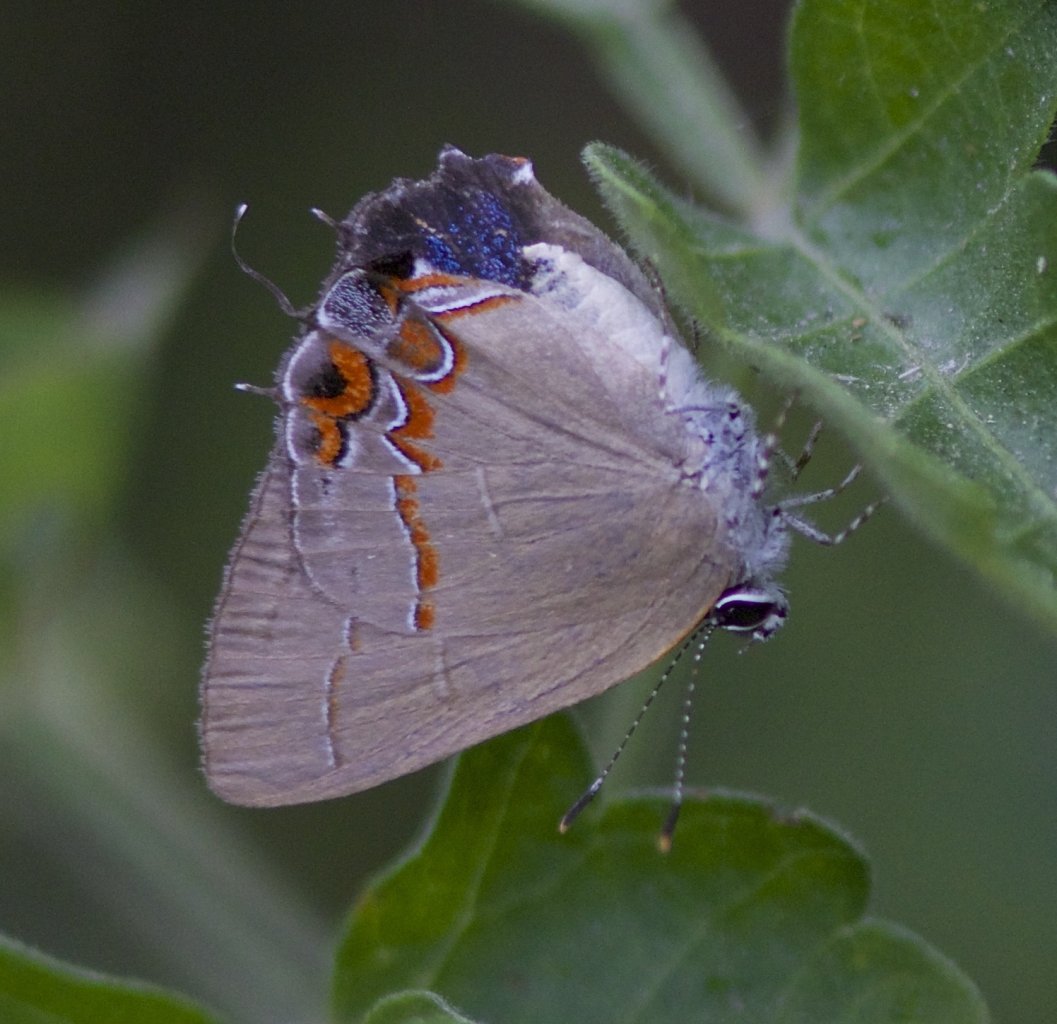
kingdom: Animalia
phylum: Arthropoda
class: Insecta
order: Lepidoptera
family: Lycaenidae
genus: Calycopis
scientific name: Calycopis isobeon
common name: Dusky-blue Groundstreak
